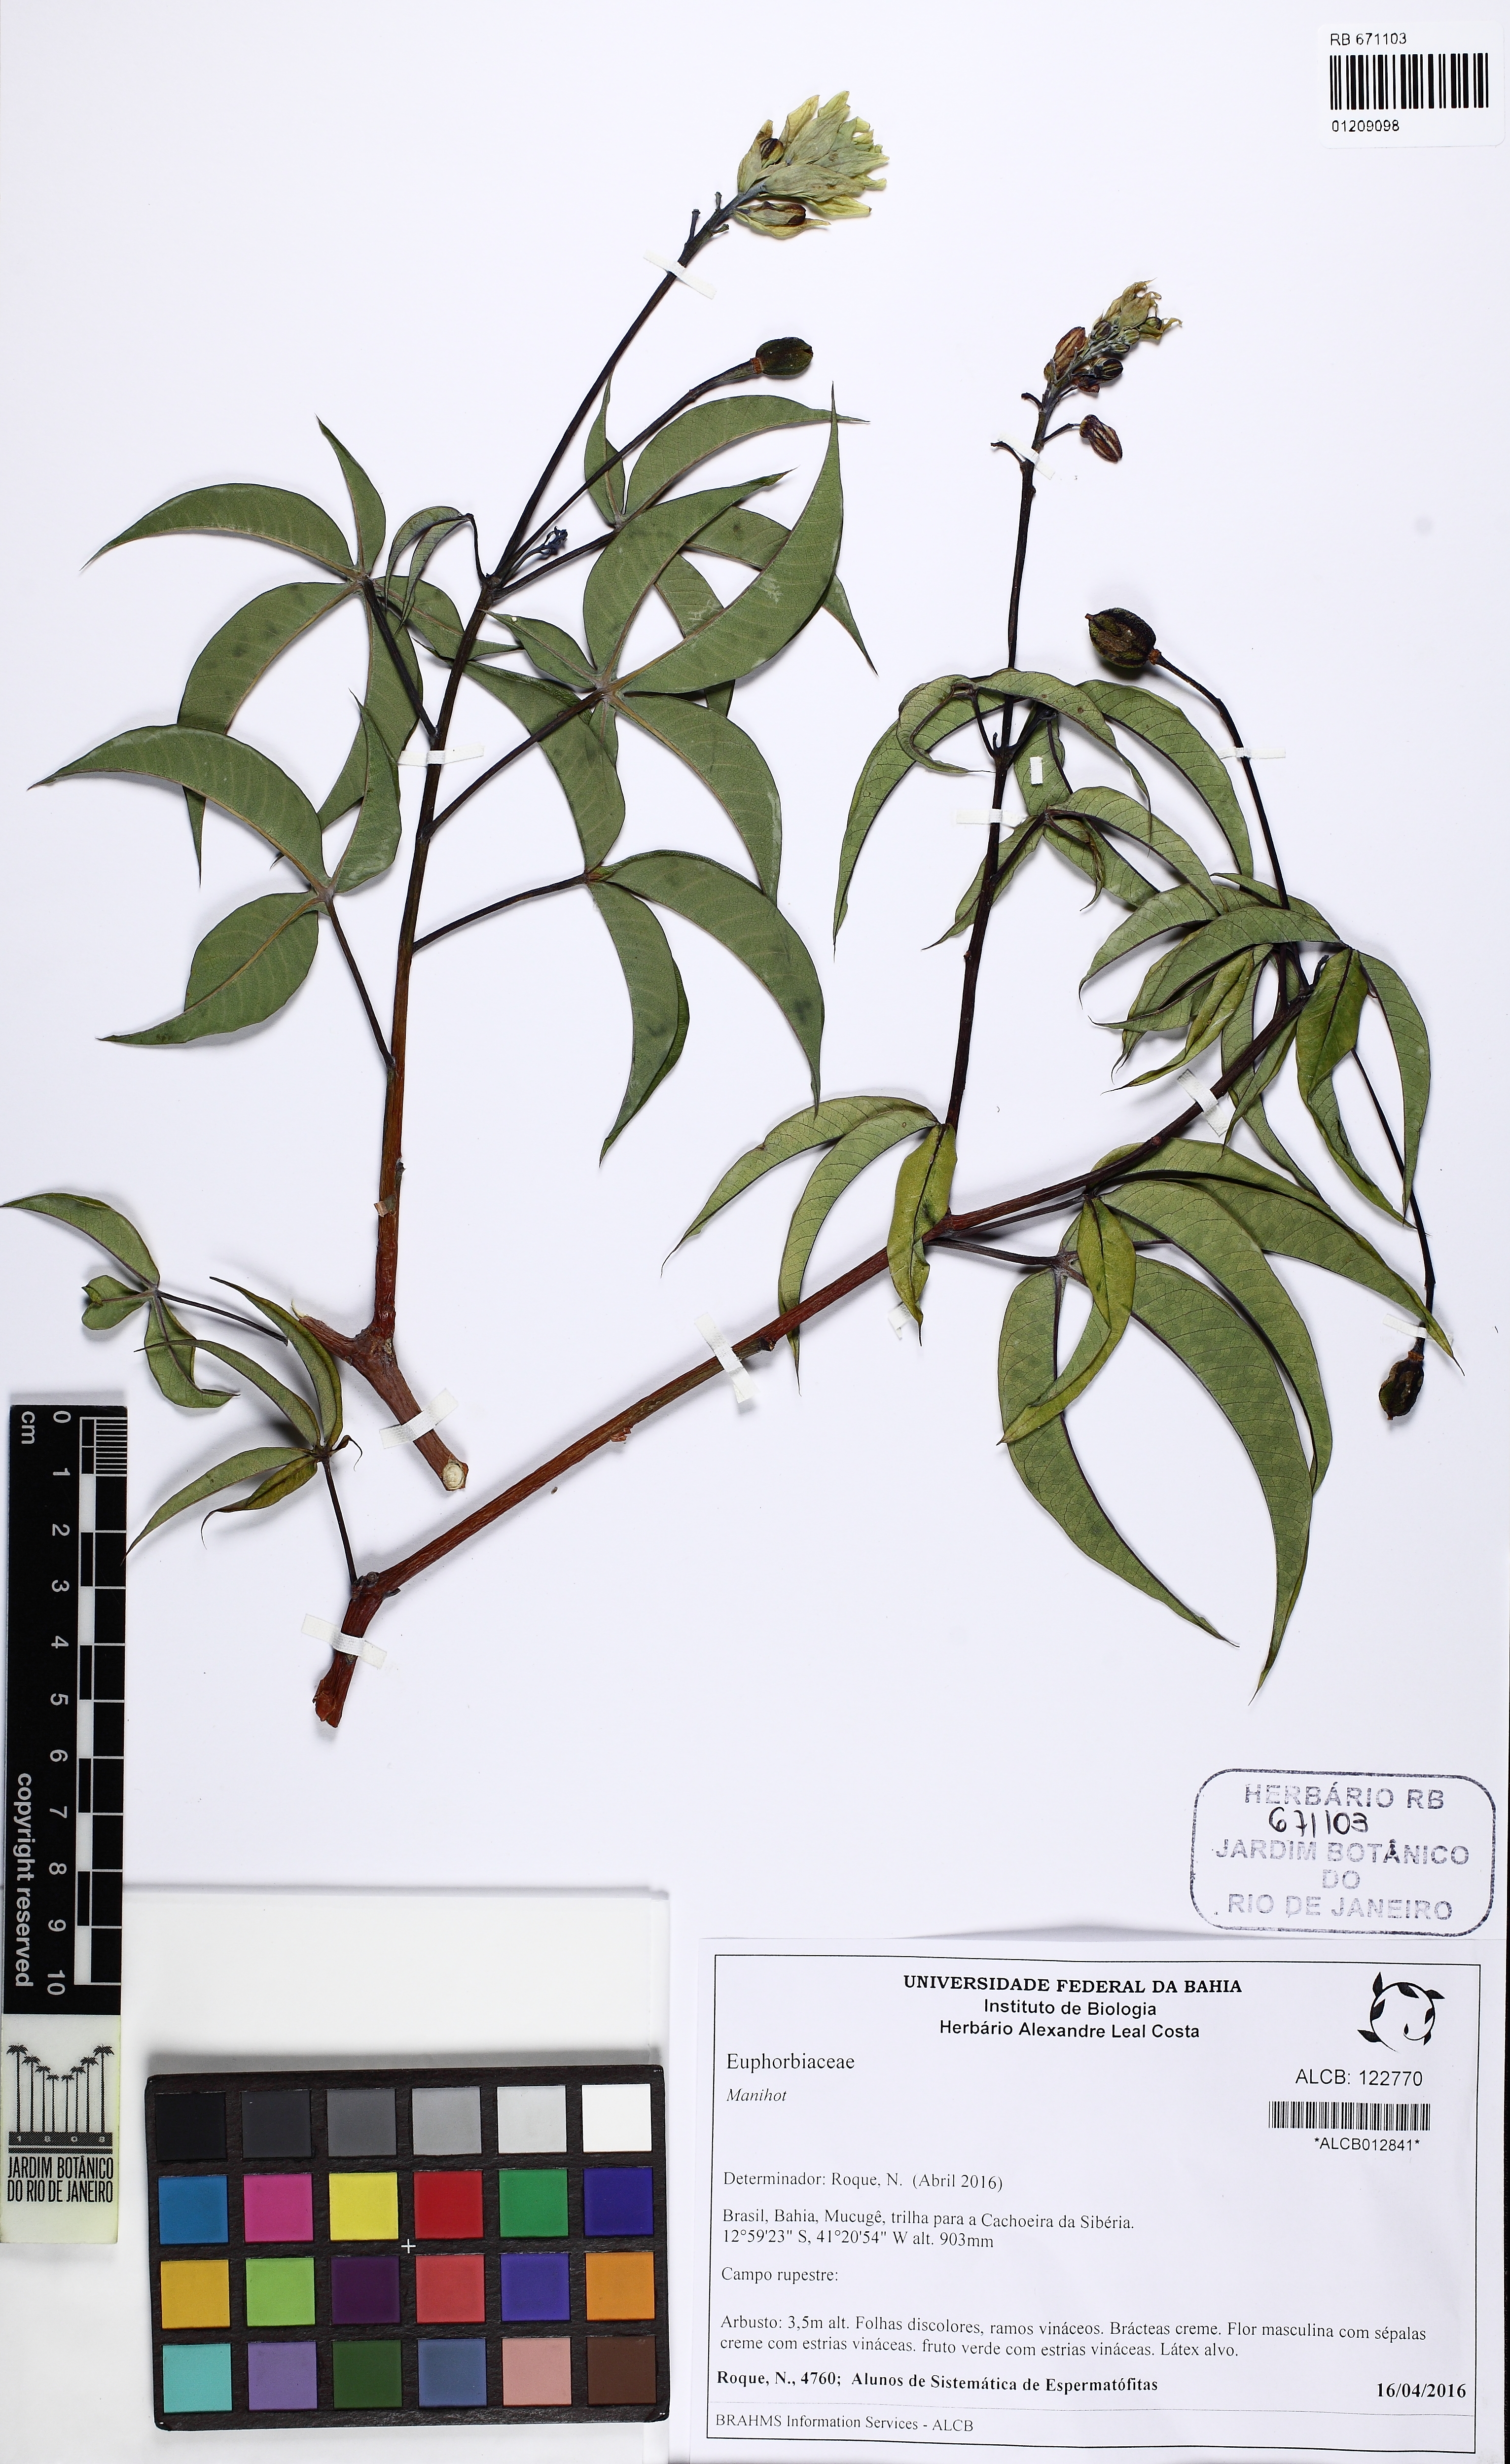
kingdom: Plantae
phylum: Tracheophyta
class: Magnoliopsida
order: Malpighiales
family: Euphorbiaceae
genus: Manihot
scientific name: Manihot
